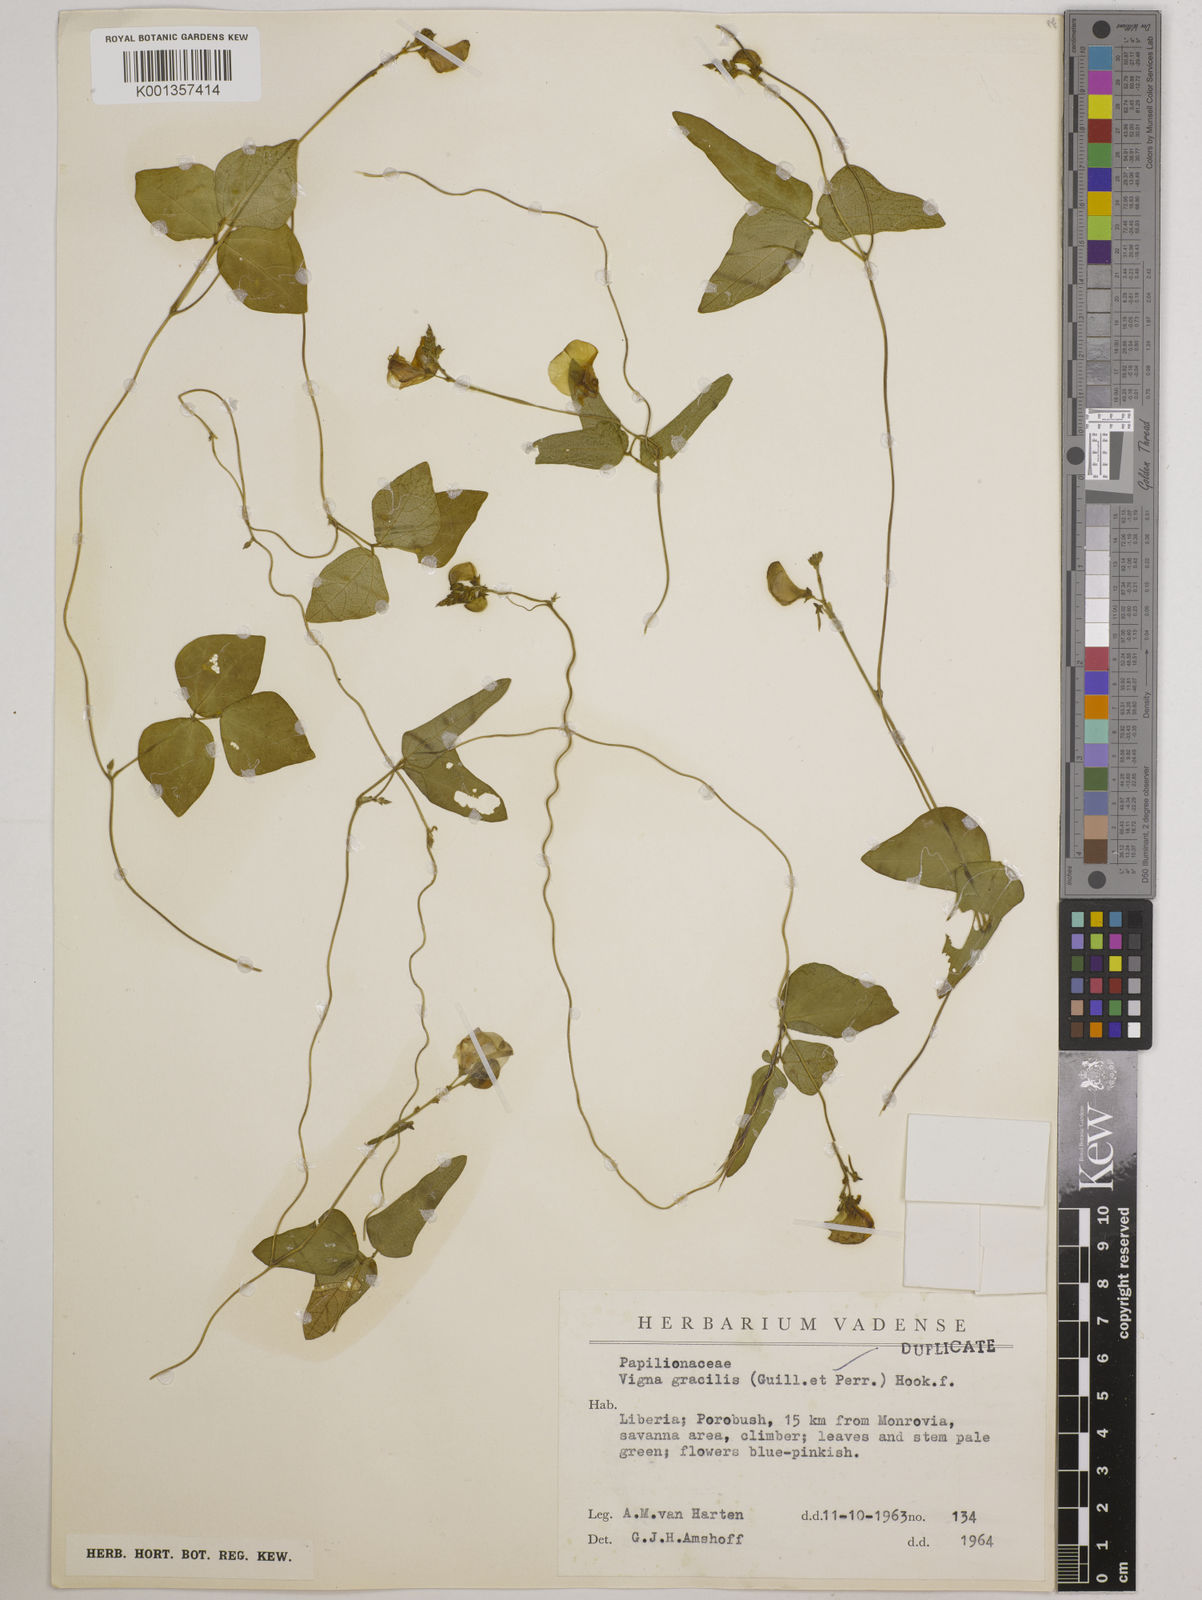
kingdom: Plantae
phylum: Tracheophyta
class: Magnoliopsida
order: Fabales
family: Fabaceae
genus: Vigna
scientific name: Vigna gracilis
